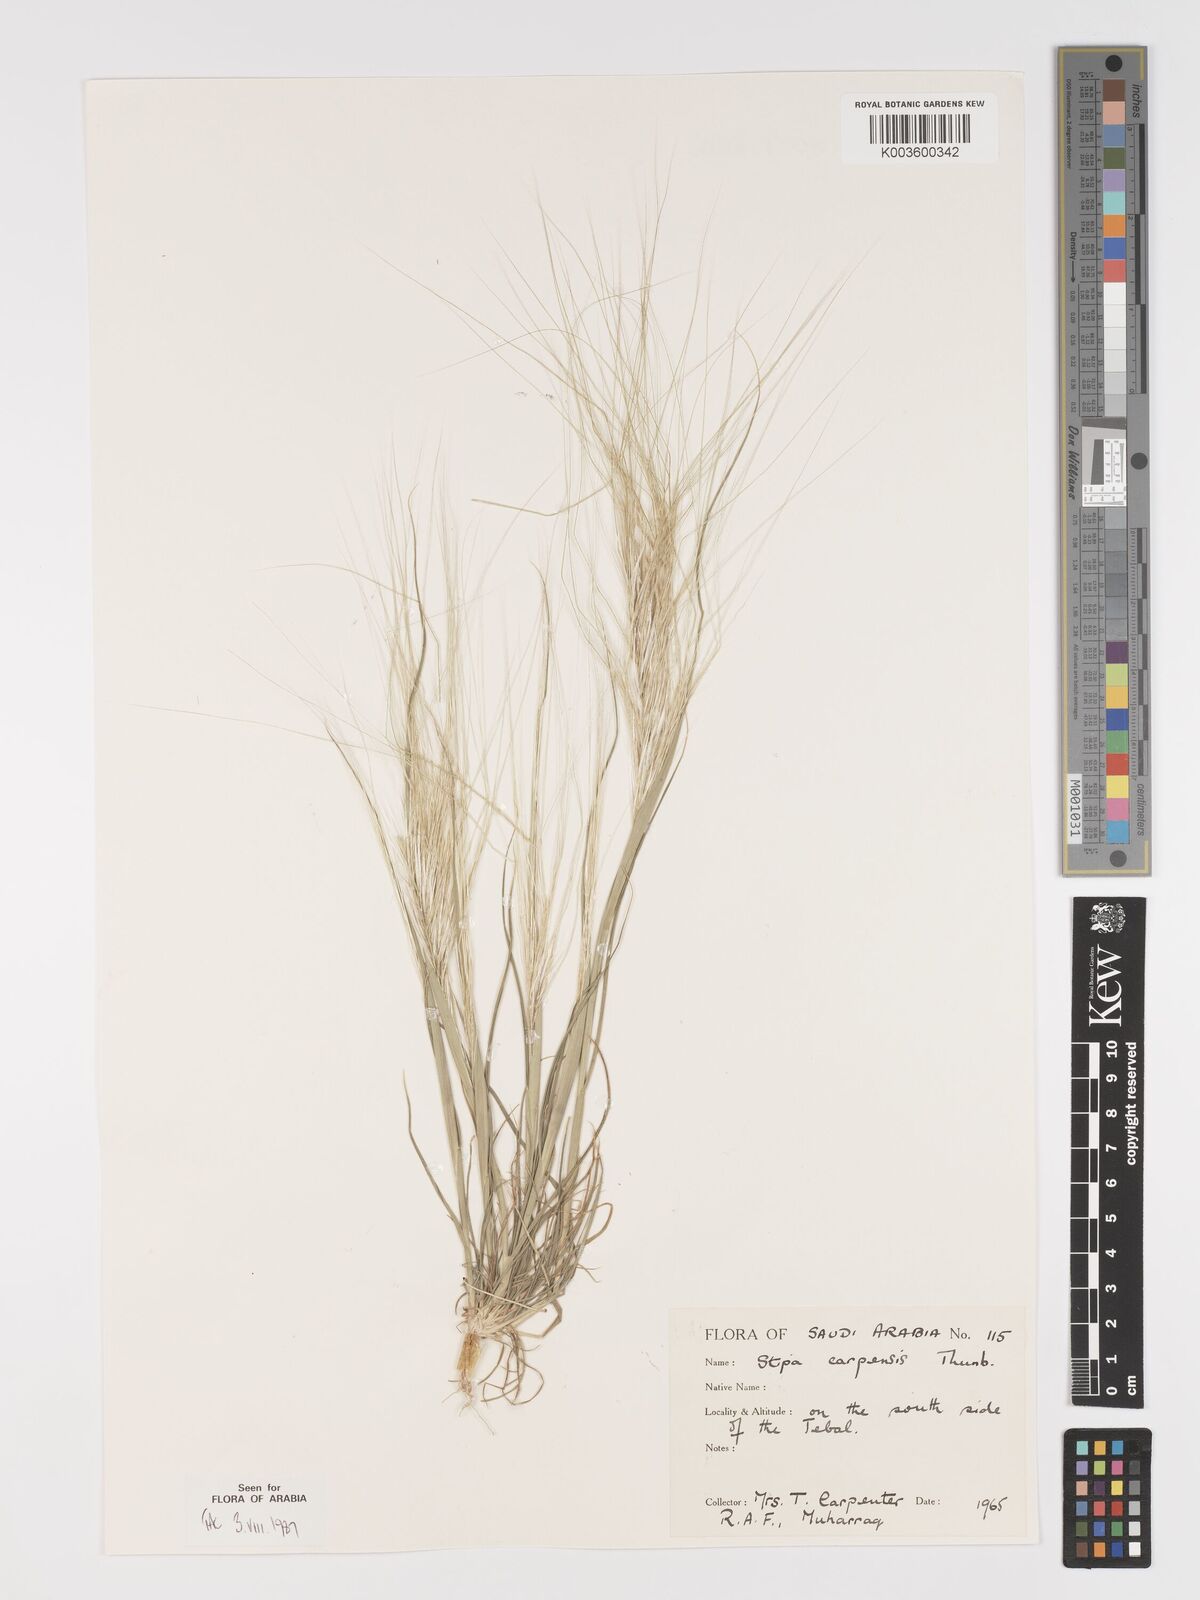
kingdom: Plantae
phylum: Tracheophyta
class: Liliopsida
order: Poales
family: Poaceae
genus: Stipellula
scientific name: Stipellula capensis
